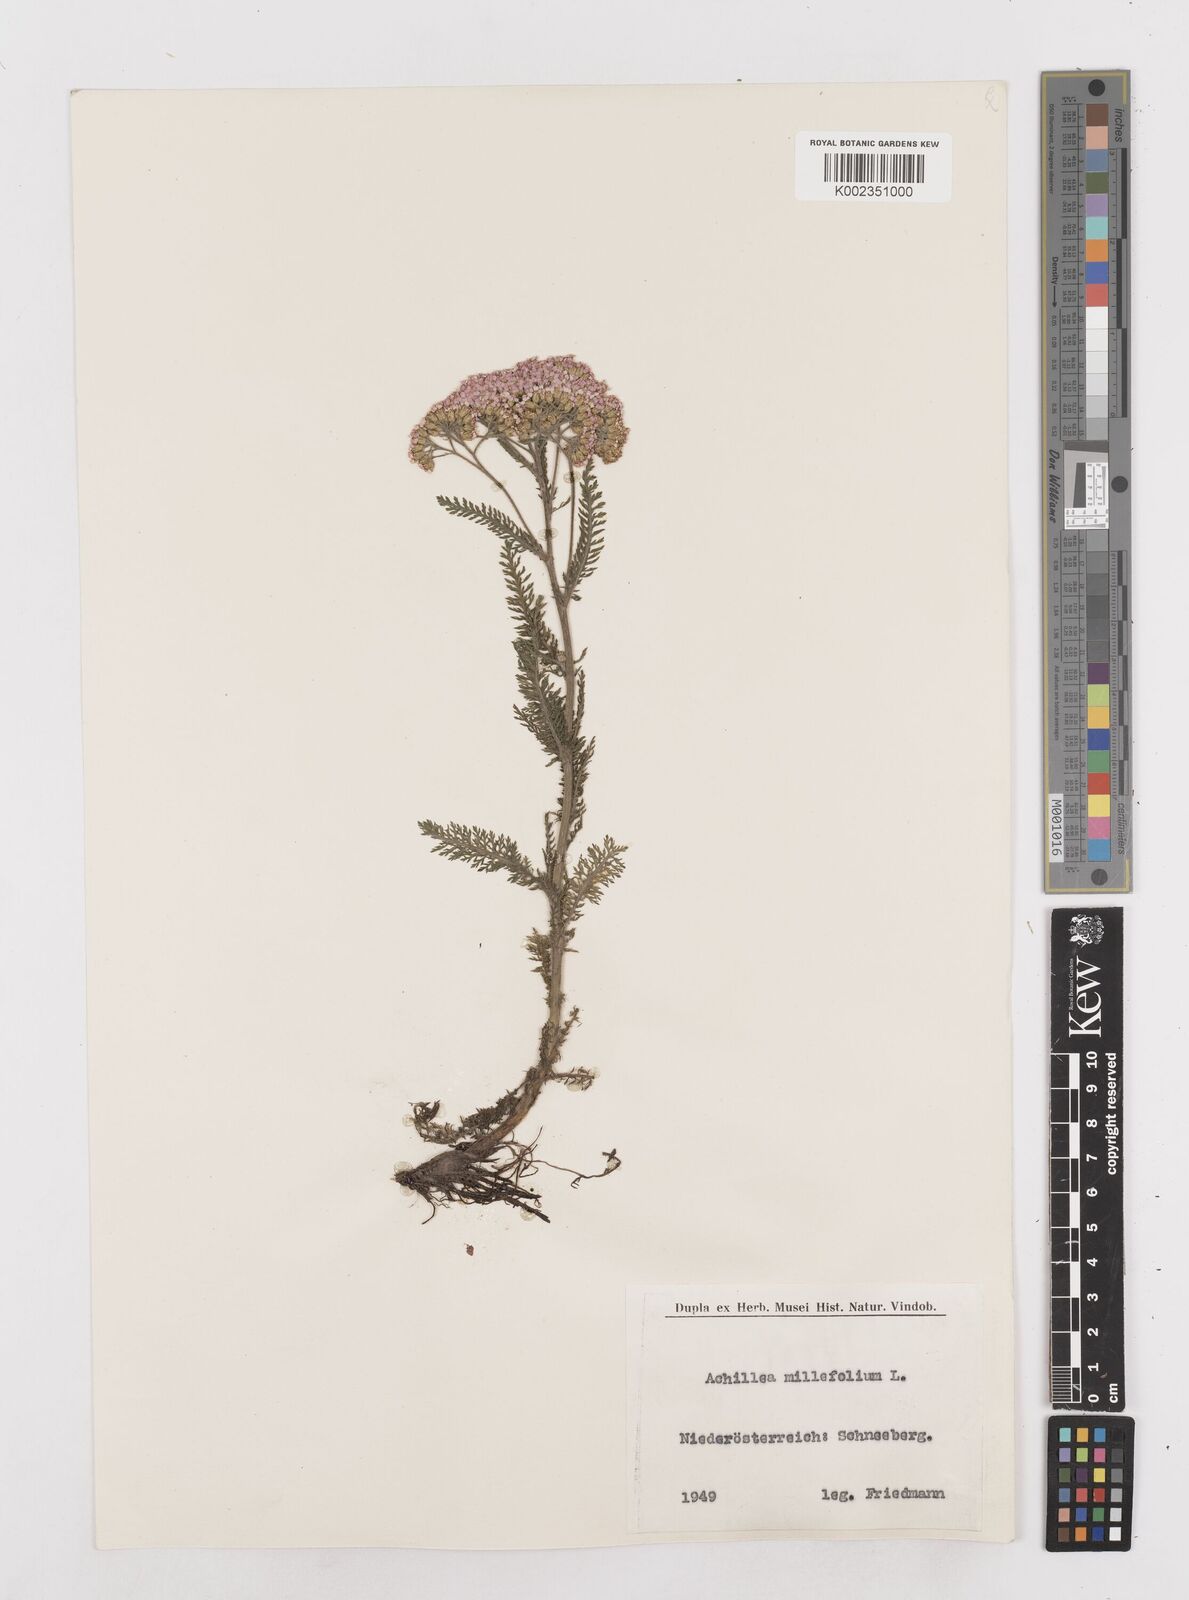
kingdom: Plantae
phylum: Tracheophyta
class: Magnoliopsida
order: Asterales
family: Asteraceae
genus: Achillea
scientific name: Achillea millefolium
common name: Yarrow
